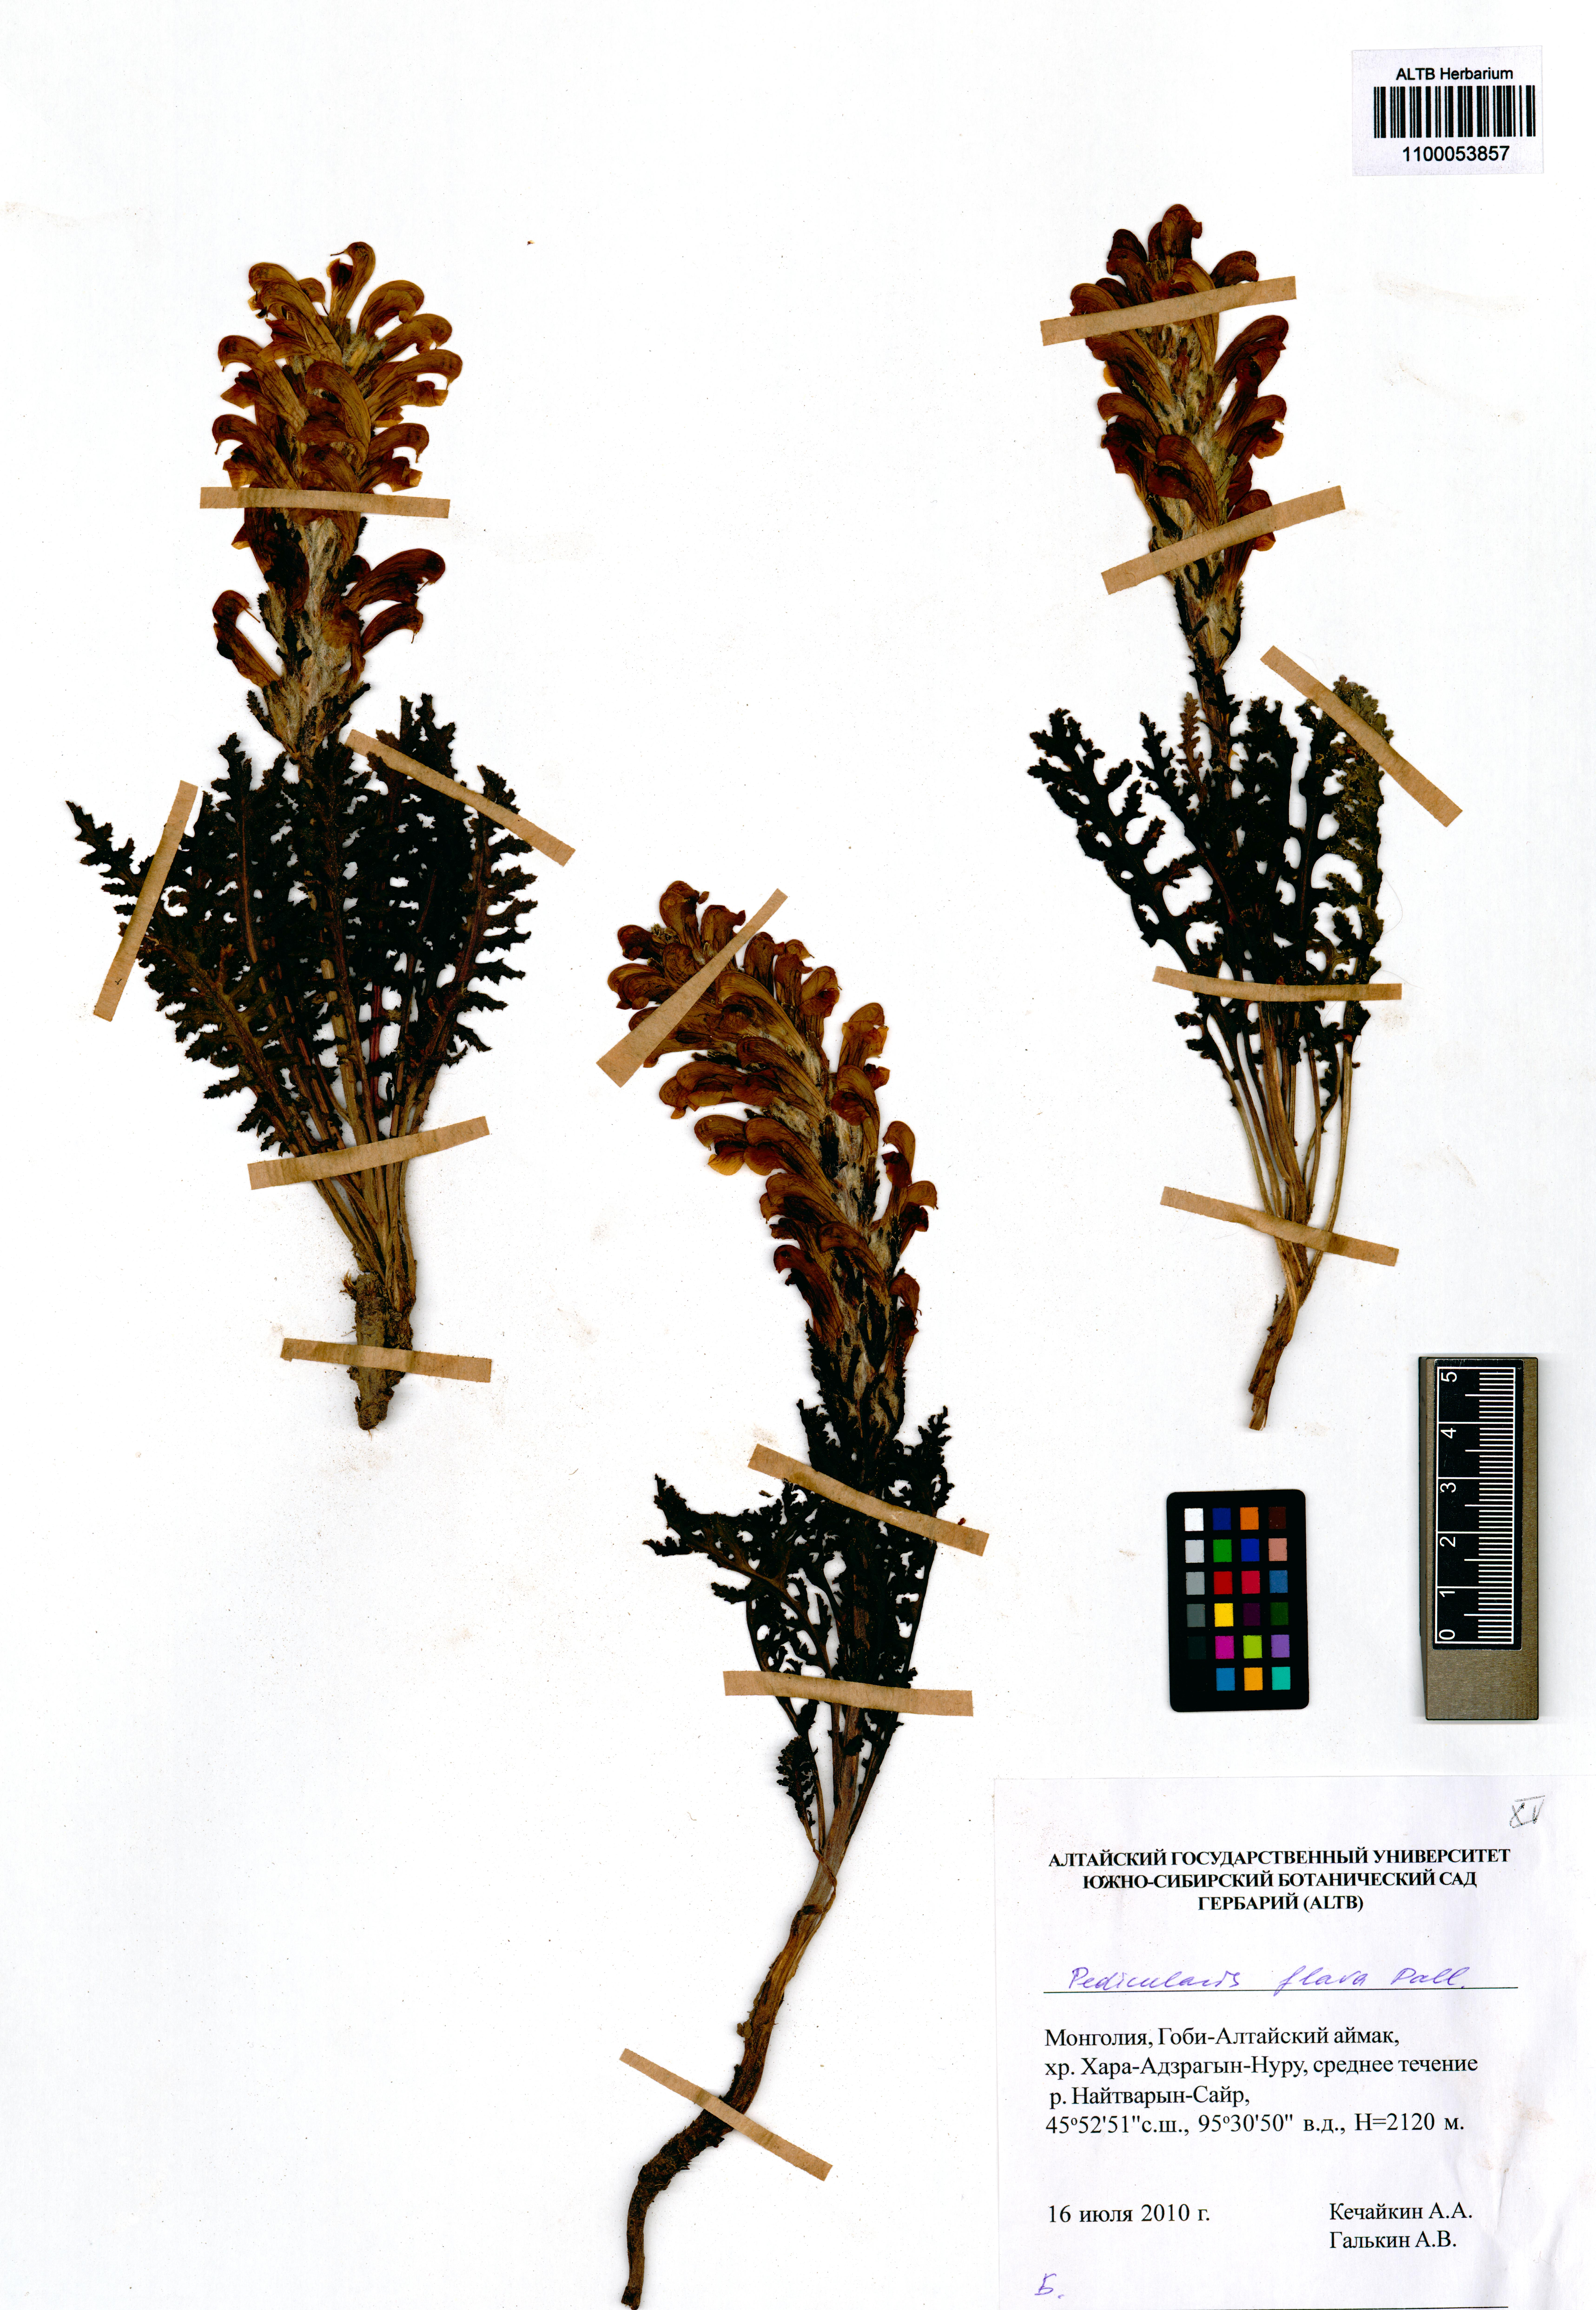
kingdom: Plantae
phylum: Tracheophyta
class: Magnoliopsida
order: Lamiales
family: Orobanchaceae
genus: Pedicularis
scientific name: Pedicularis flava
